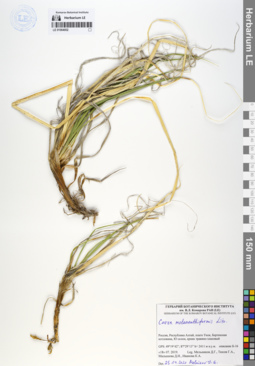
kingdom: Plantae
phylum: Tracheophyta
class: Liliopsida
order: Poales
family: Cyperaceae
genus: Carex
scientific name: Carex melananthiformis
